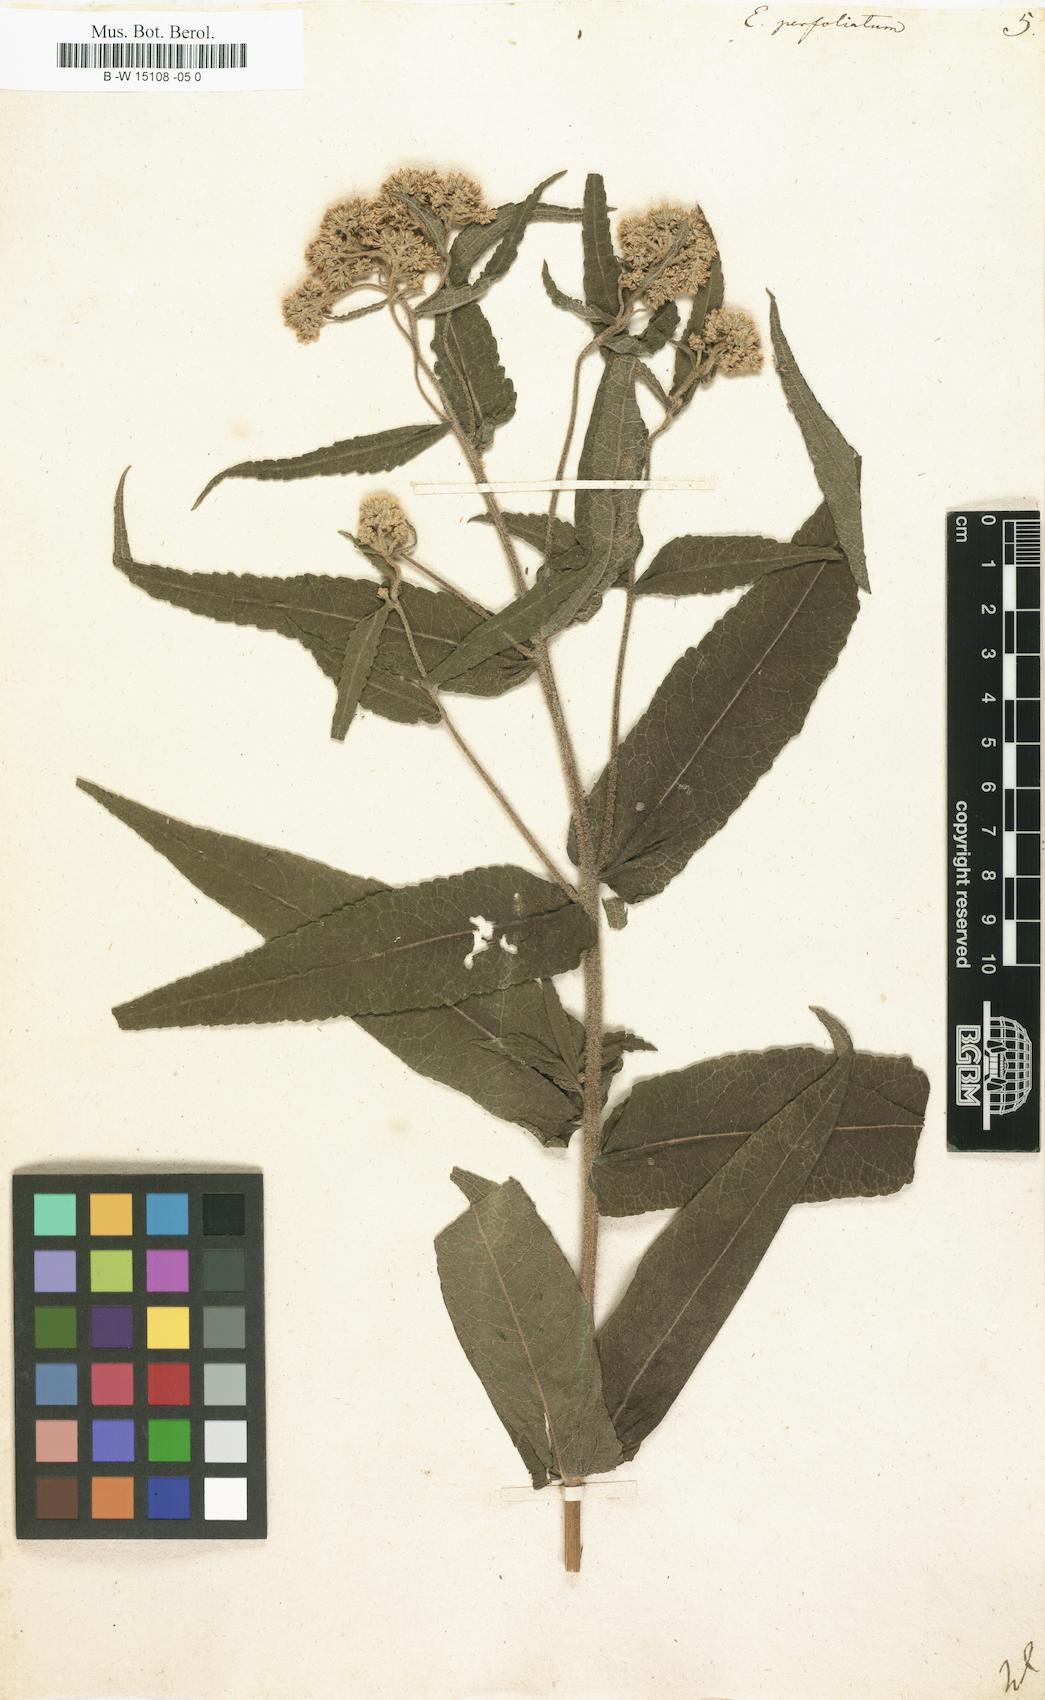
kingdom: Plantae
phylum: Tracheophyta
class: Magnoliopsida
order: Asterales
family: Asteraceae
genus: Eupatorium
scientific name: Eupatorium perfoliatum
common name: Boneset
